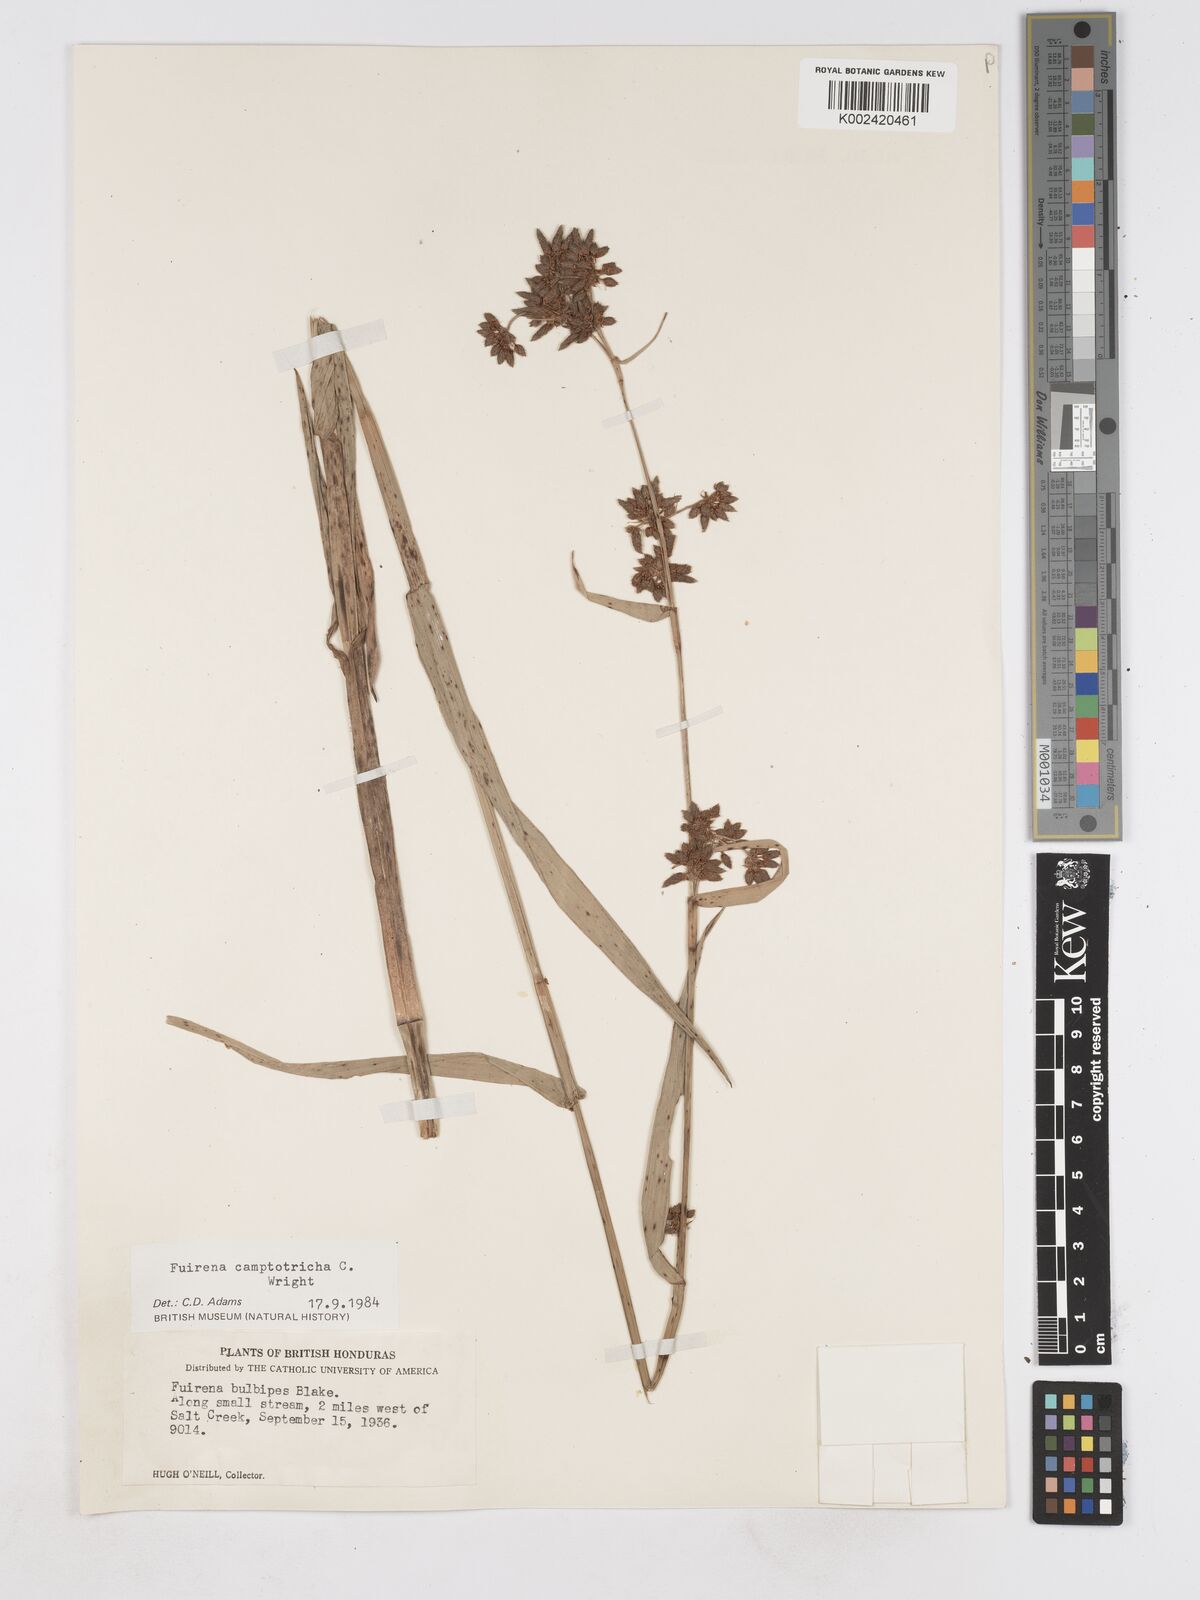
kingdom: Plantae
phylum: Tracheophyta
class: Liliopsida
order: Poales
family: Cyperaceae
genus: Fuirena
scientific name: Fuirena camptotricha
